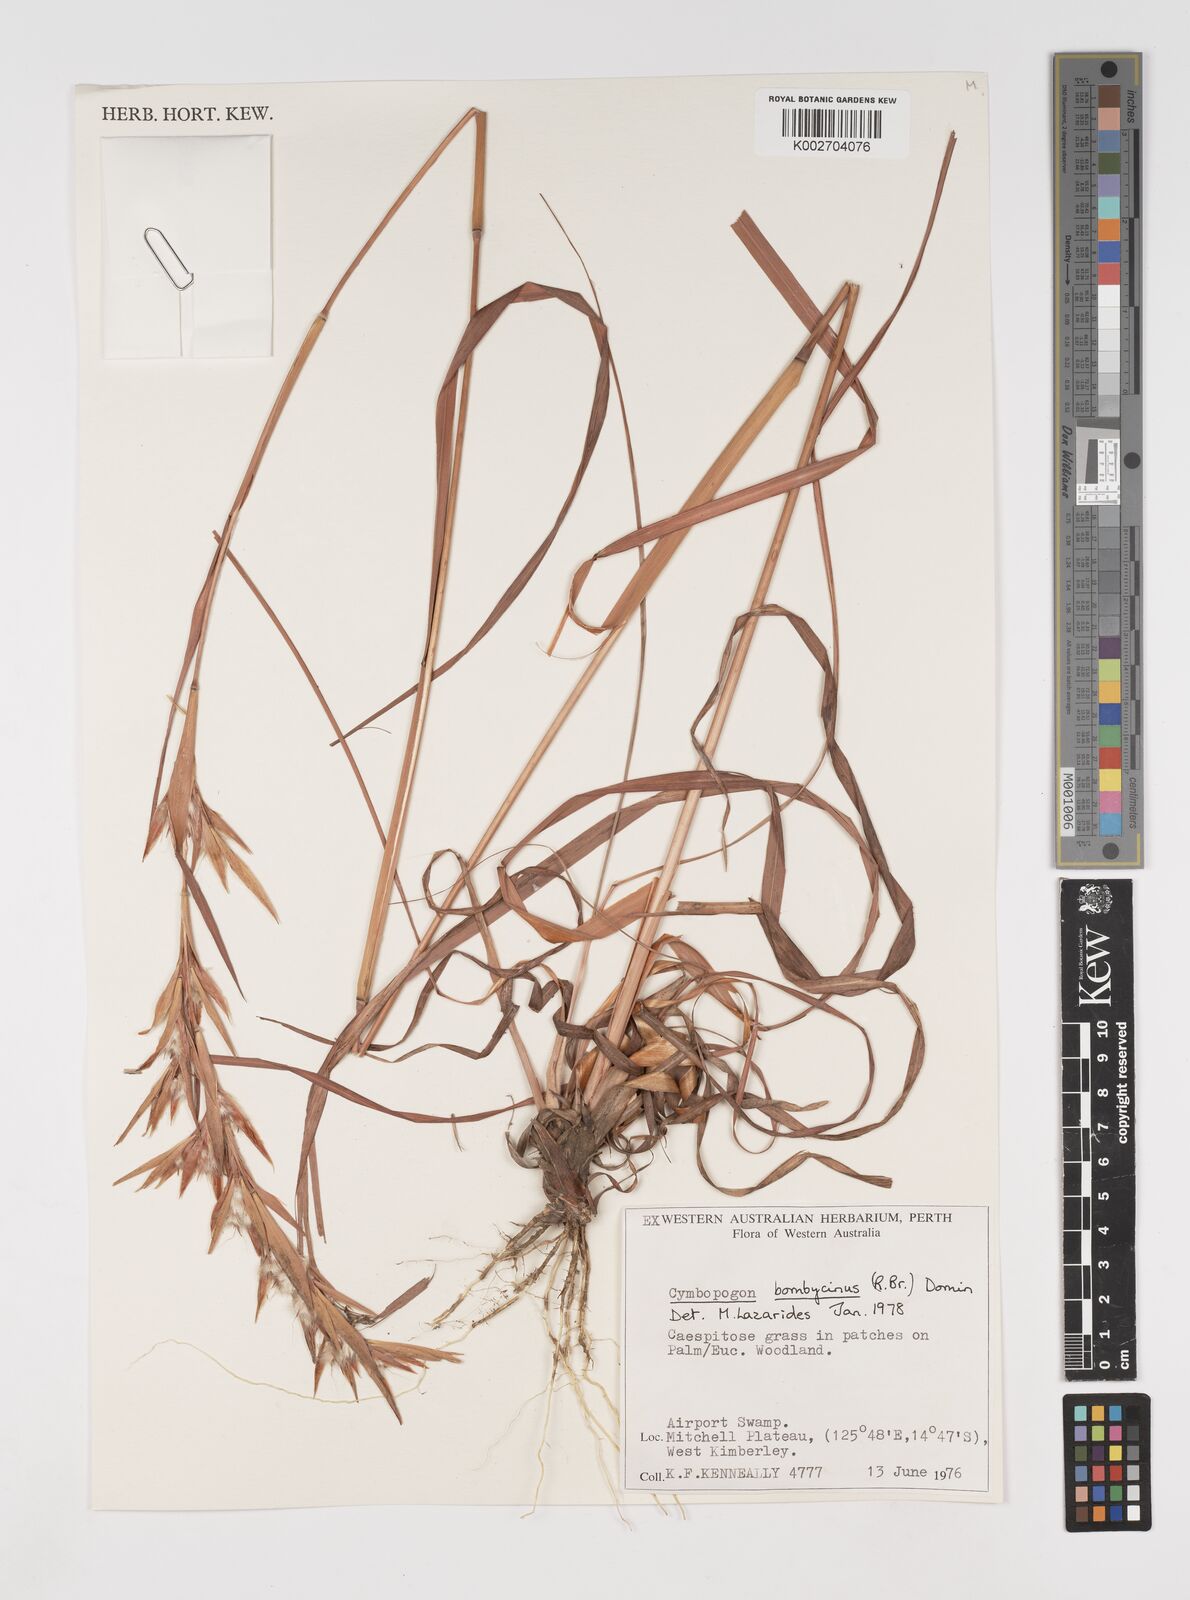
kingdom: Plantae
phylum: Tracheophyta
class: Liliopsida
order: Poales
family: Poaceae
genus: Cymbopogon
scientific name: Cymbopogon bombycinus
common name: Citronella grass
